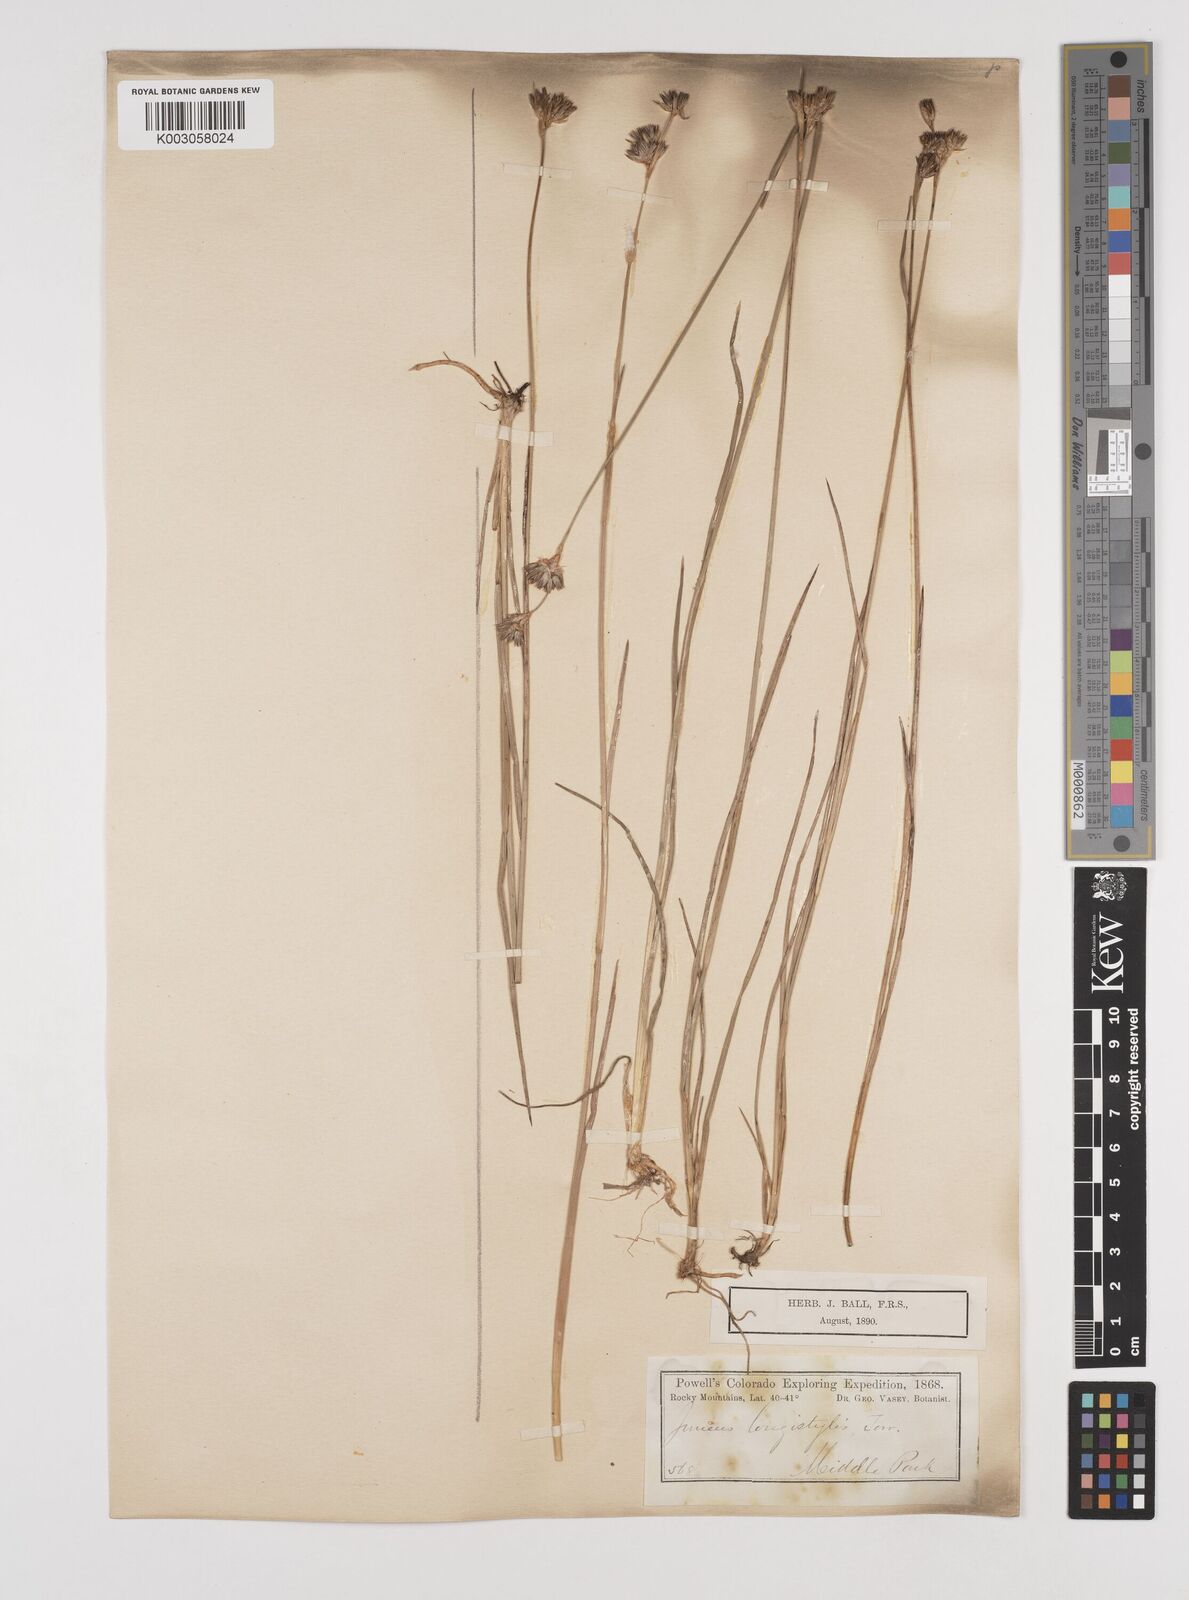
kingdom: Plantae
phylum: Tracheophyta
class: Liliopsida
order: Poales
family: Juncaceae
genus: Juncus
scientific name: Juncus longistylis
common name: Long-style rush
